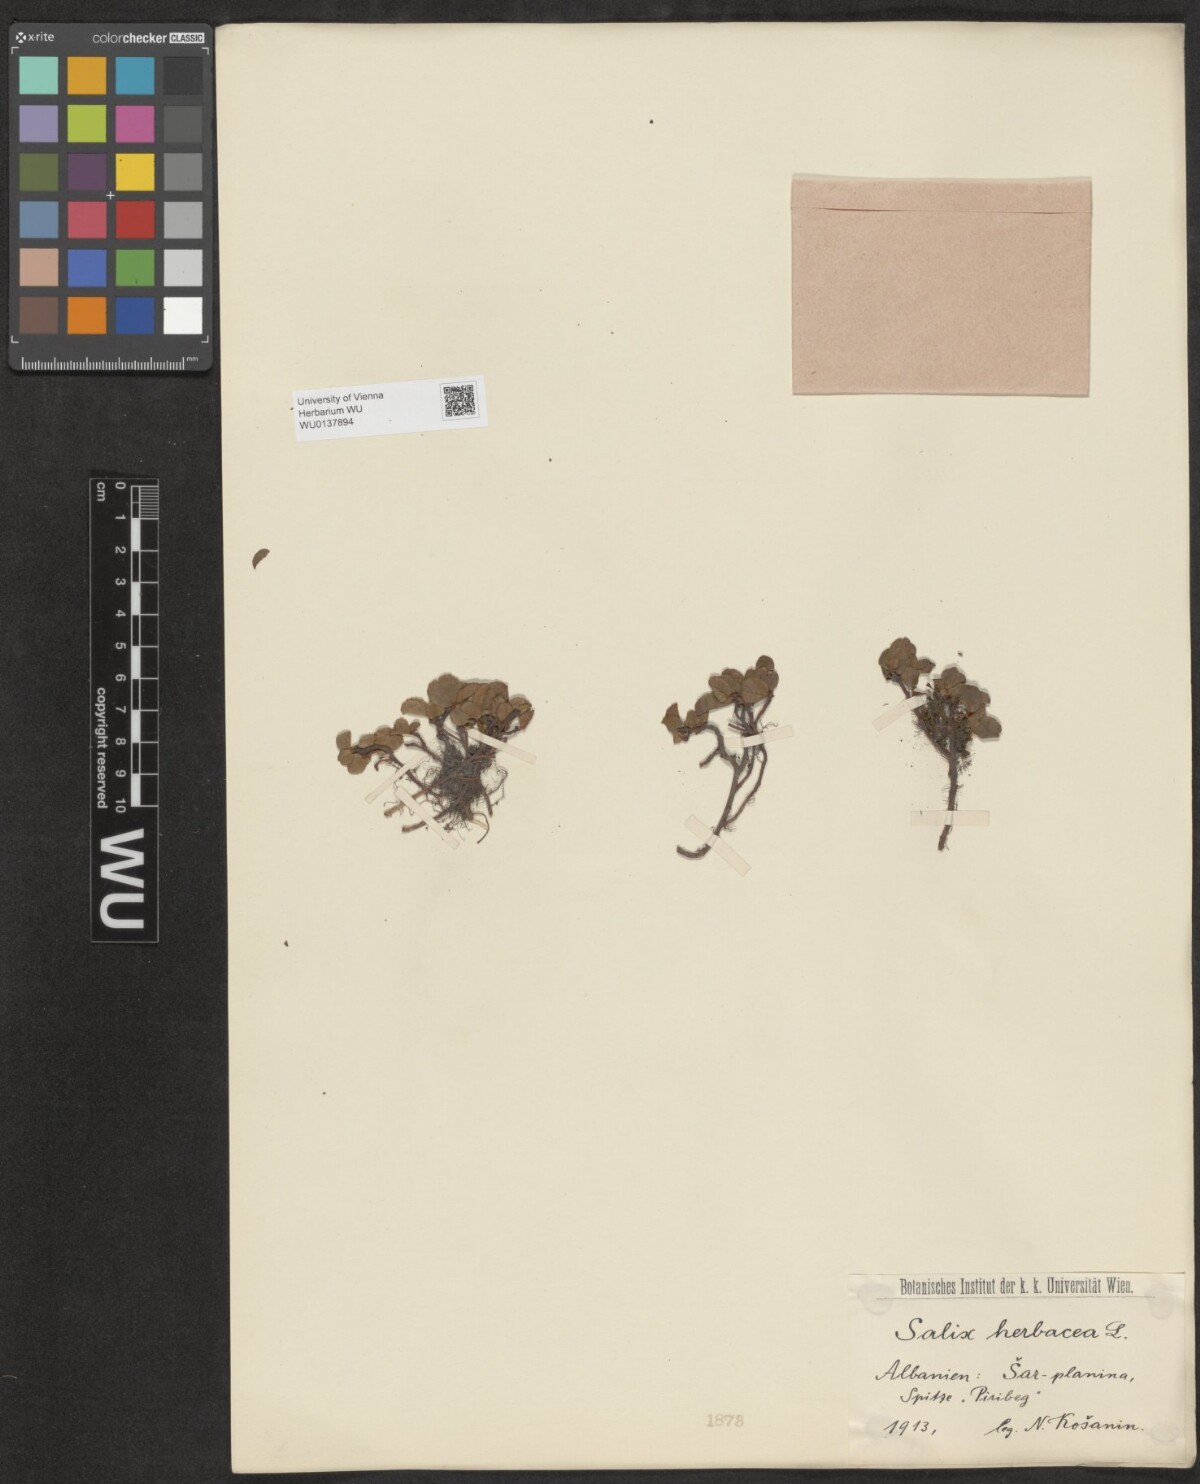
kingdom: Plantae
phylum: Tracheophyta
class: Magnoliopsida
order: Malpighiales
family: Salicaceae
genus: Salix
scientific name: Salix herbacea
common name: Dwarf willow
